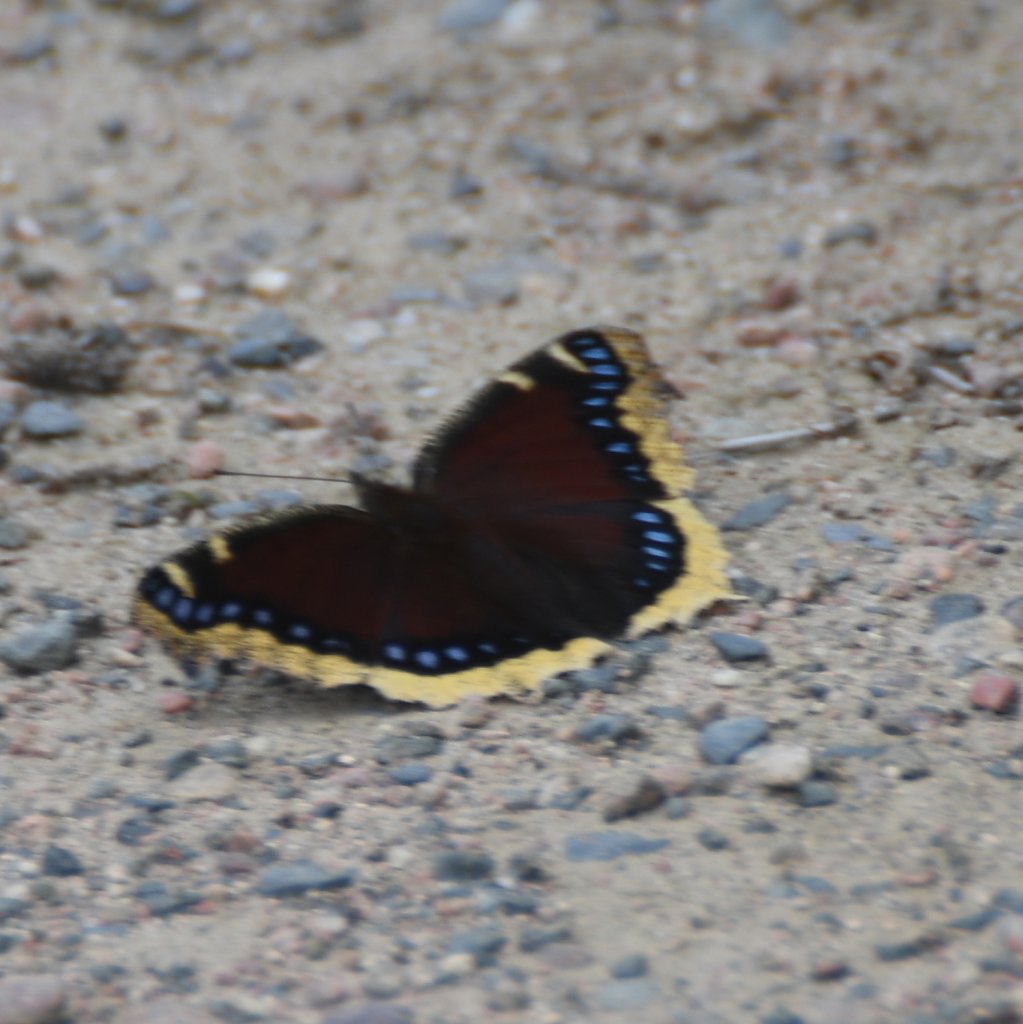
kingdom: Animalia
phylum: Arthropoda
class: Insecta
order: Lepidoptera
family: Nymphalidae
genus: Nymphalis
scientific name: Nymphalis antiopa
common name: Mourning Cloak
